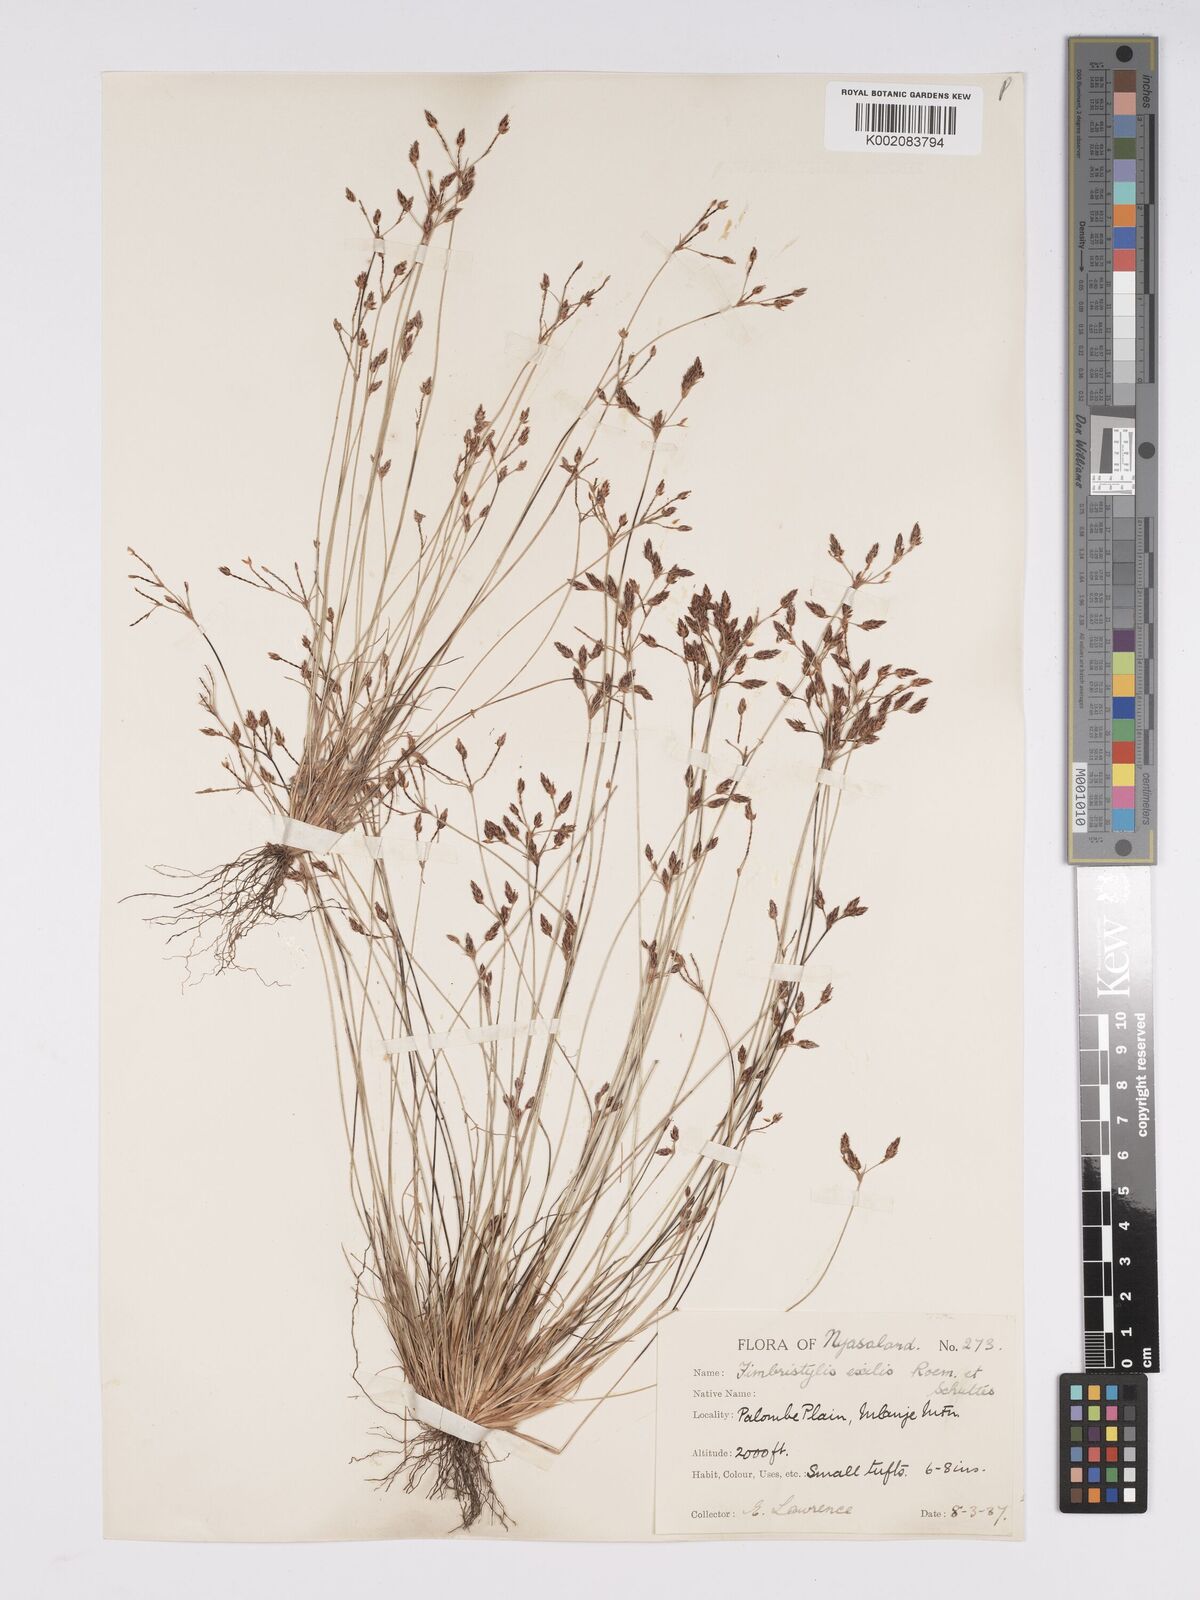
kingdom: Plantae
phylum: Tracheophyta
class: Liliopsida
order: Poales
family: Cyperaceae
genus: Bulbostylis
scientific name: Bulbostylis hispidula
